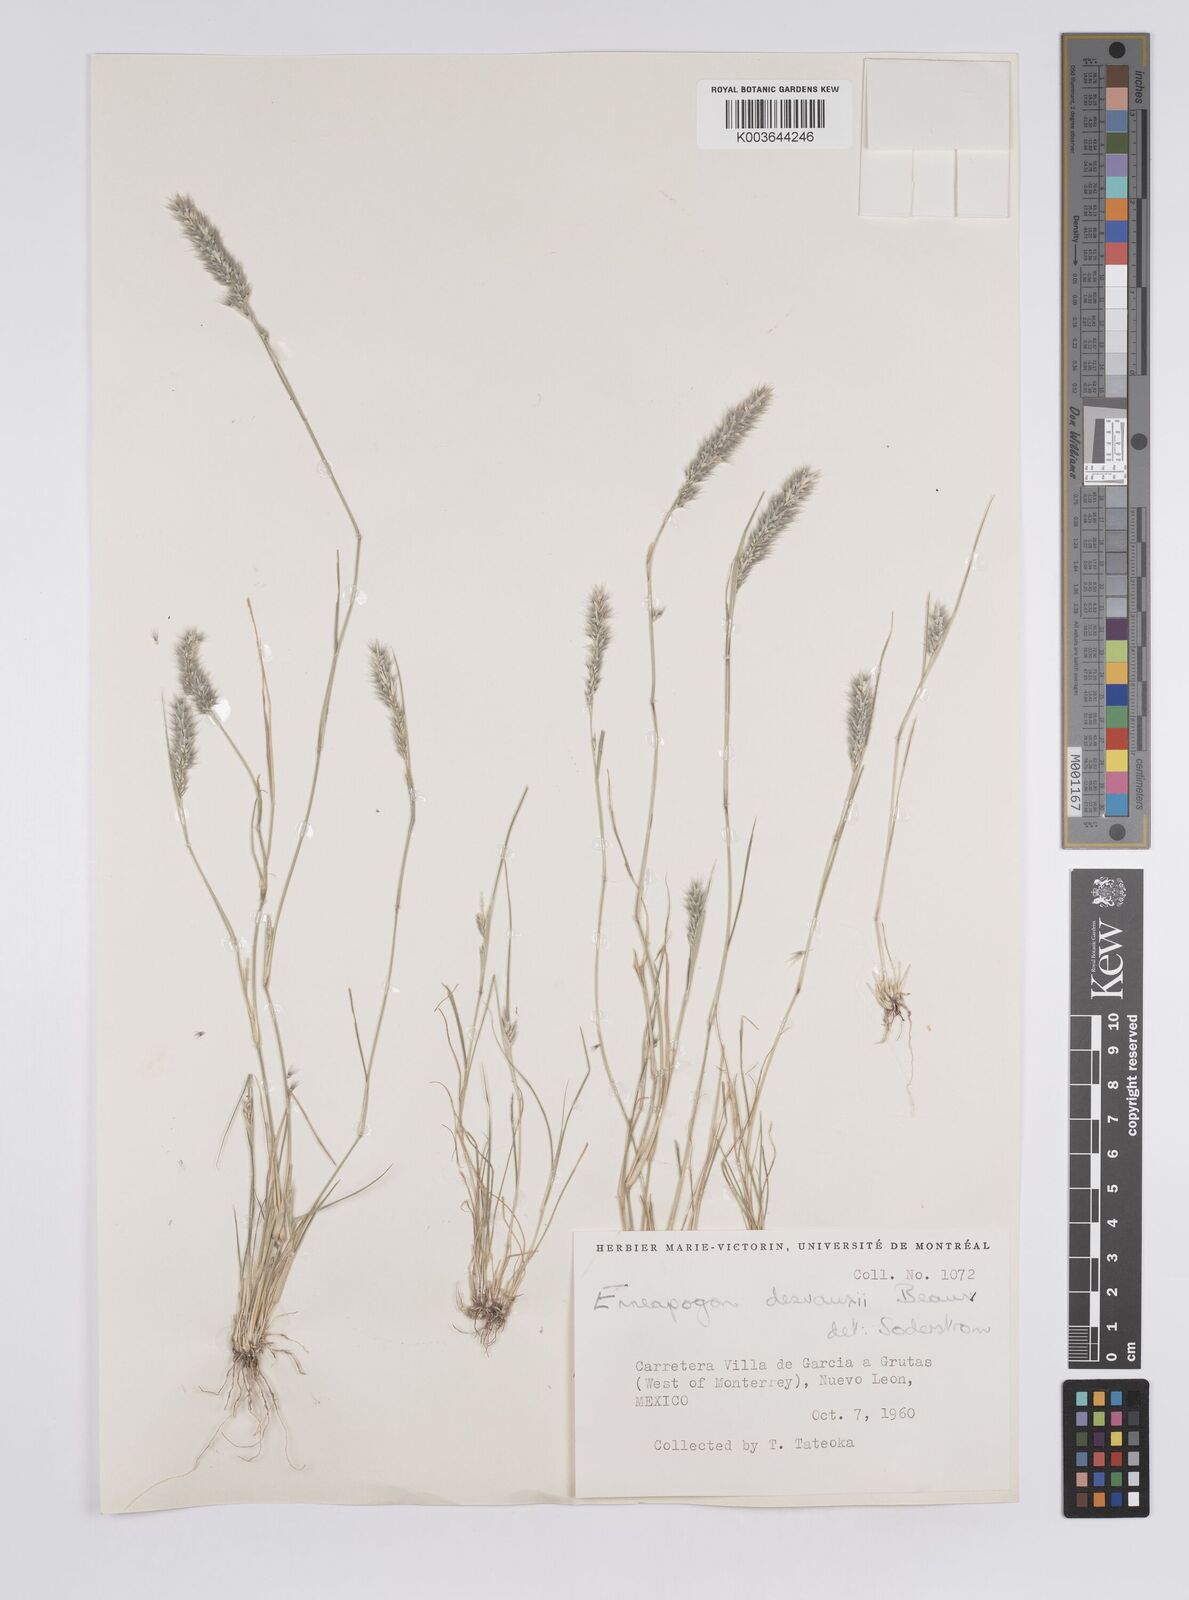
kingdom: Plantae
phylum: Tracheophyta
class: Liliopsida
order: Poales
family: Poaceae
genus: Enneapogon
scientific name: Enneapogon desvauxii
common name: Feather pappus grass
